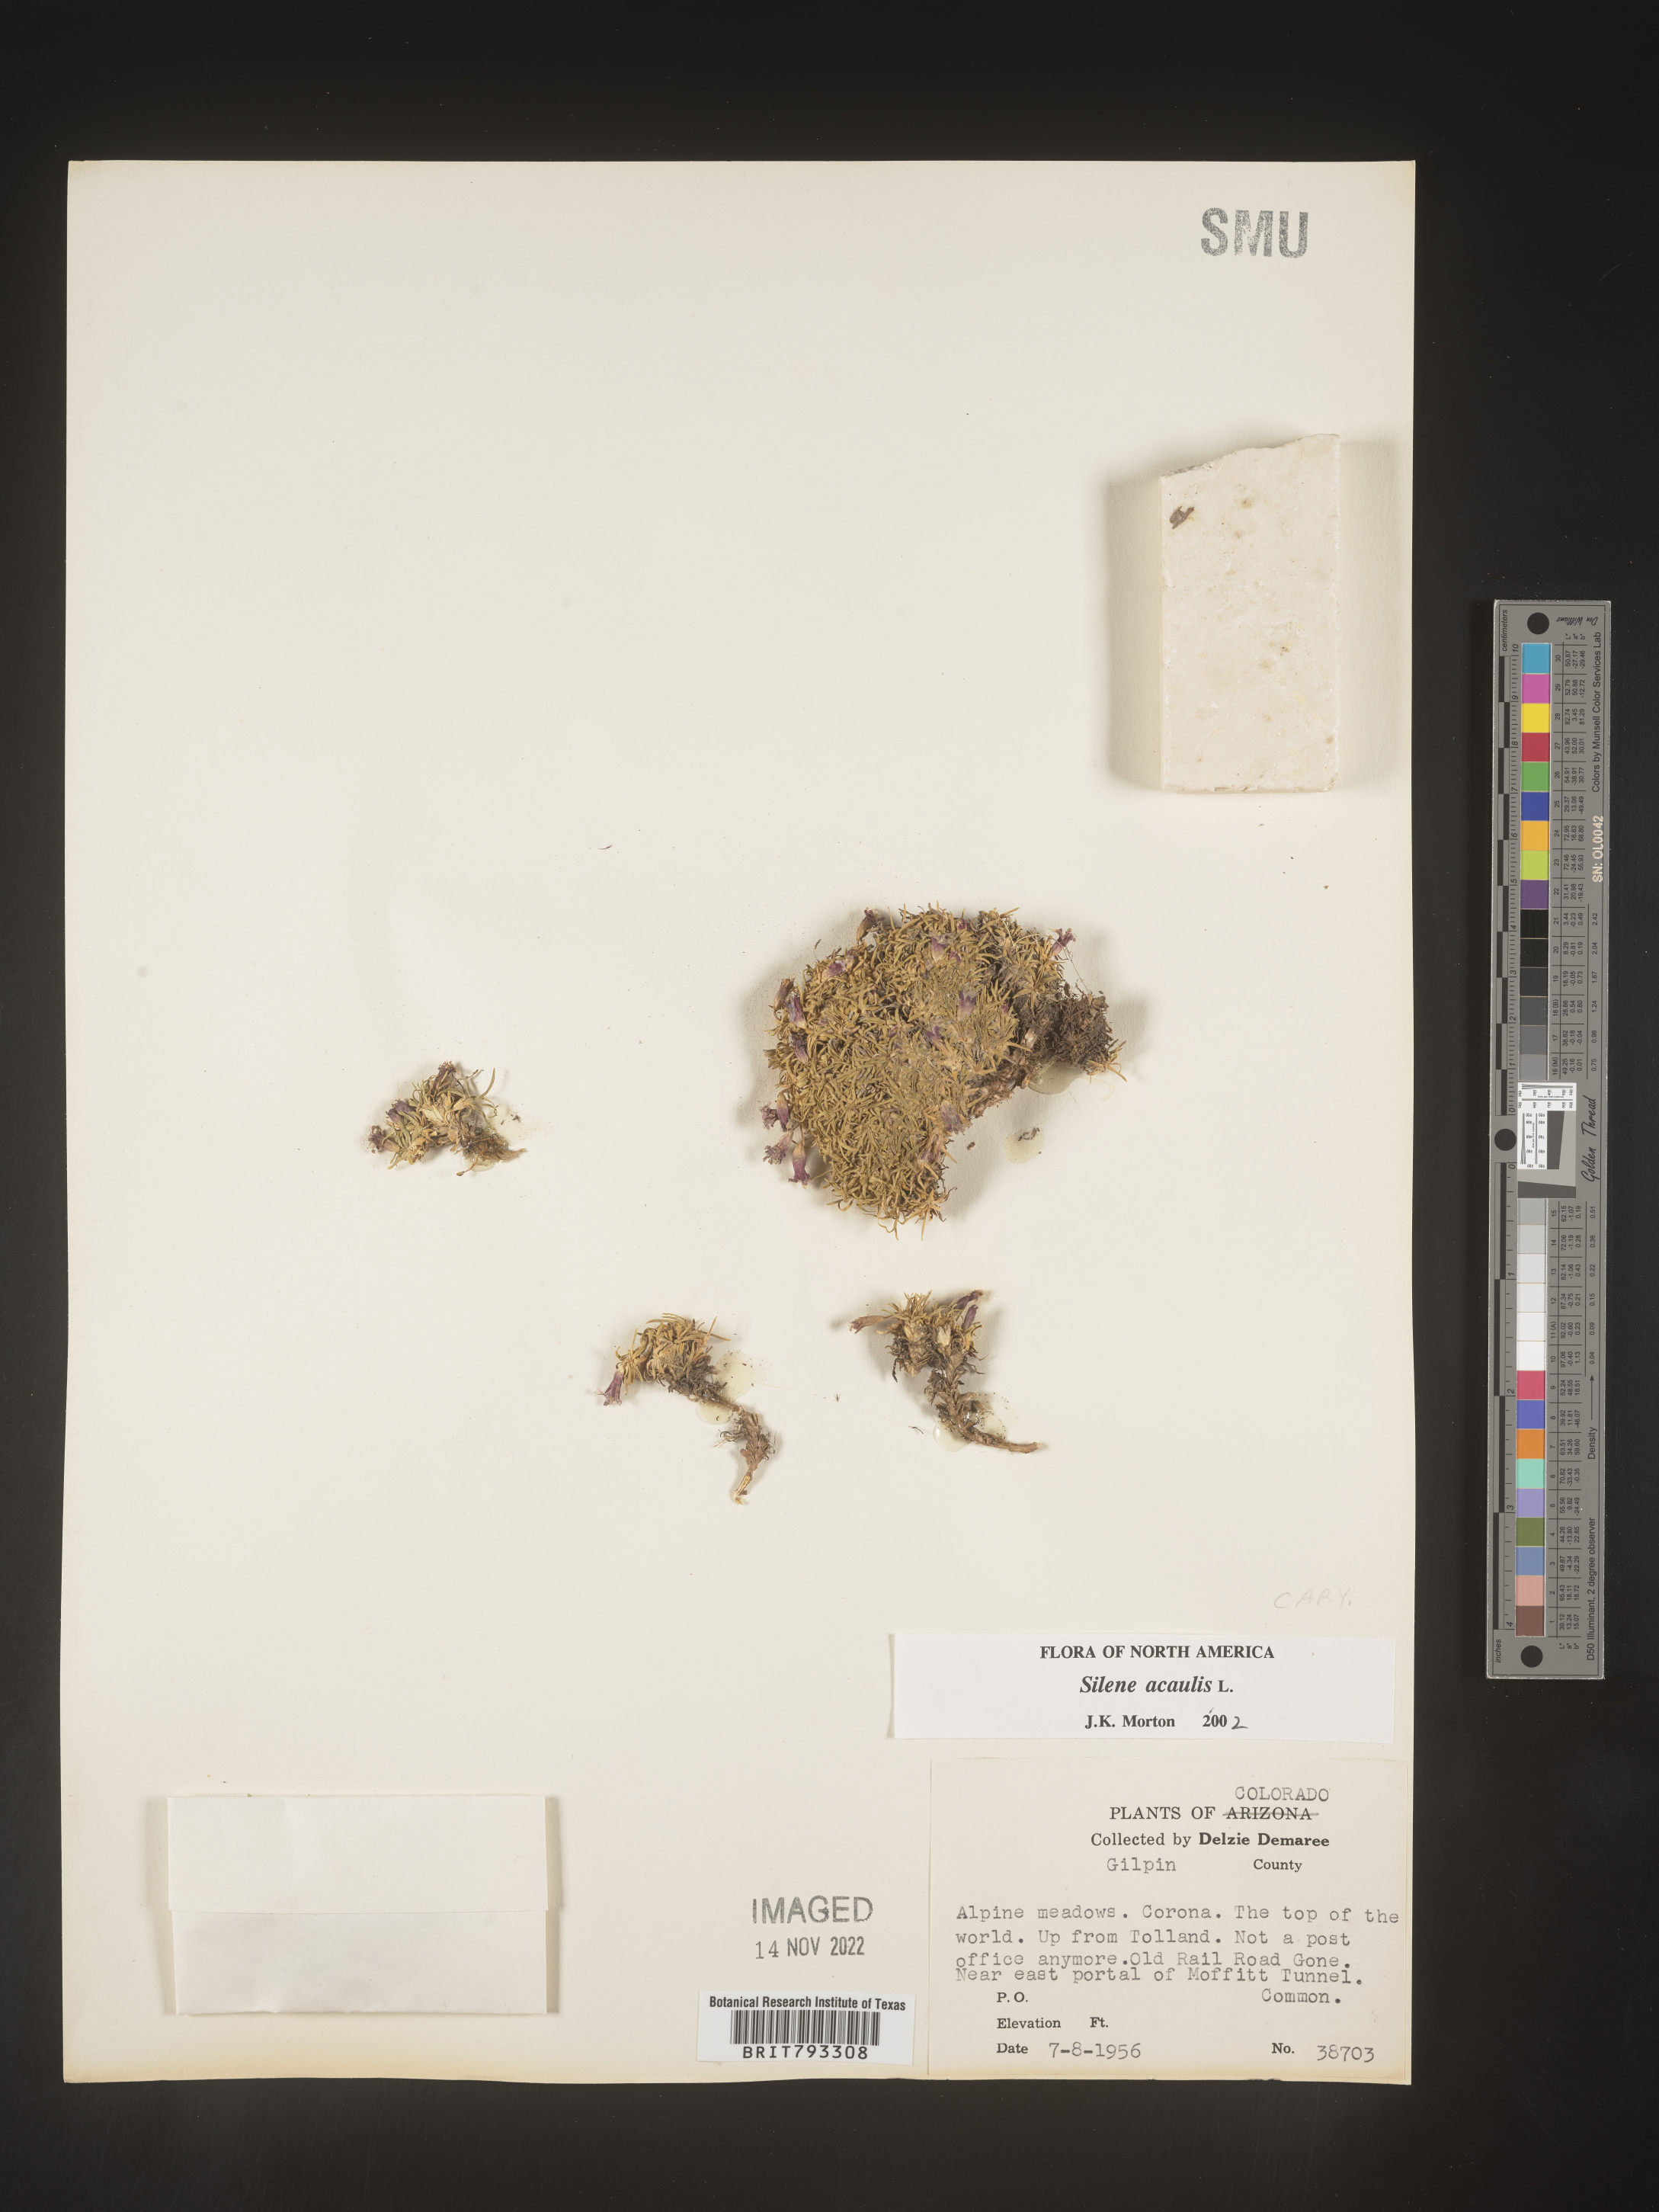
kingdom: Plantae
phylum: Tracheophyta
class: Magnoliopsida
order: Caryophyllales
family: Caryophyllaceae
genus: Silene
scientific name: Silene acaulis
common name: Moss campion
